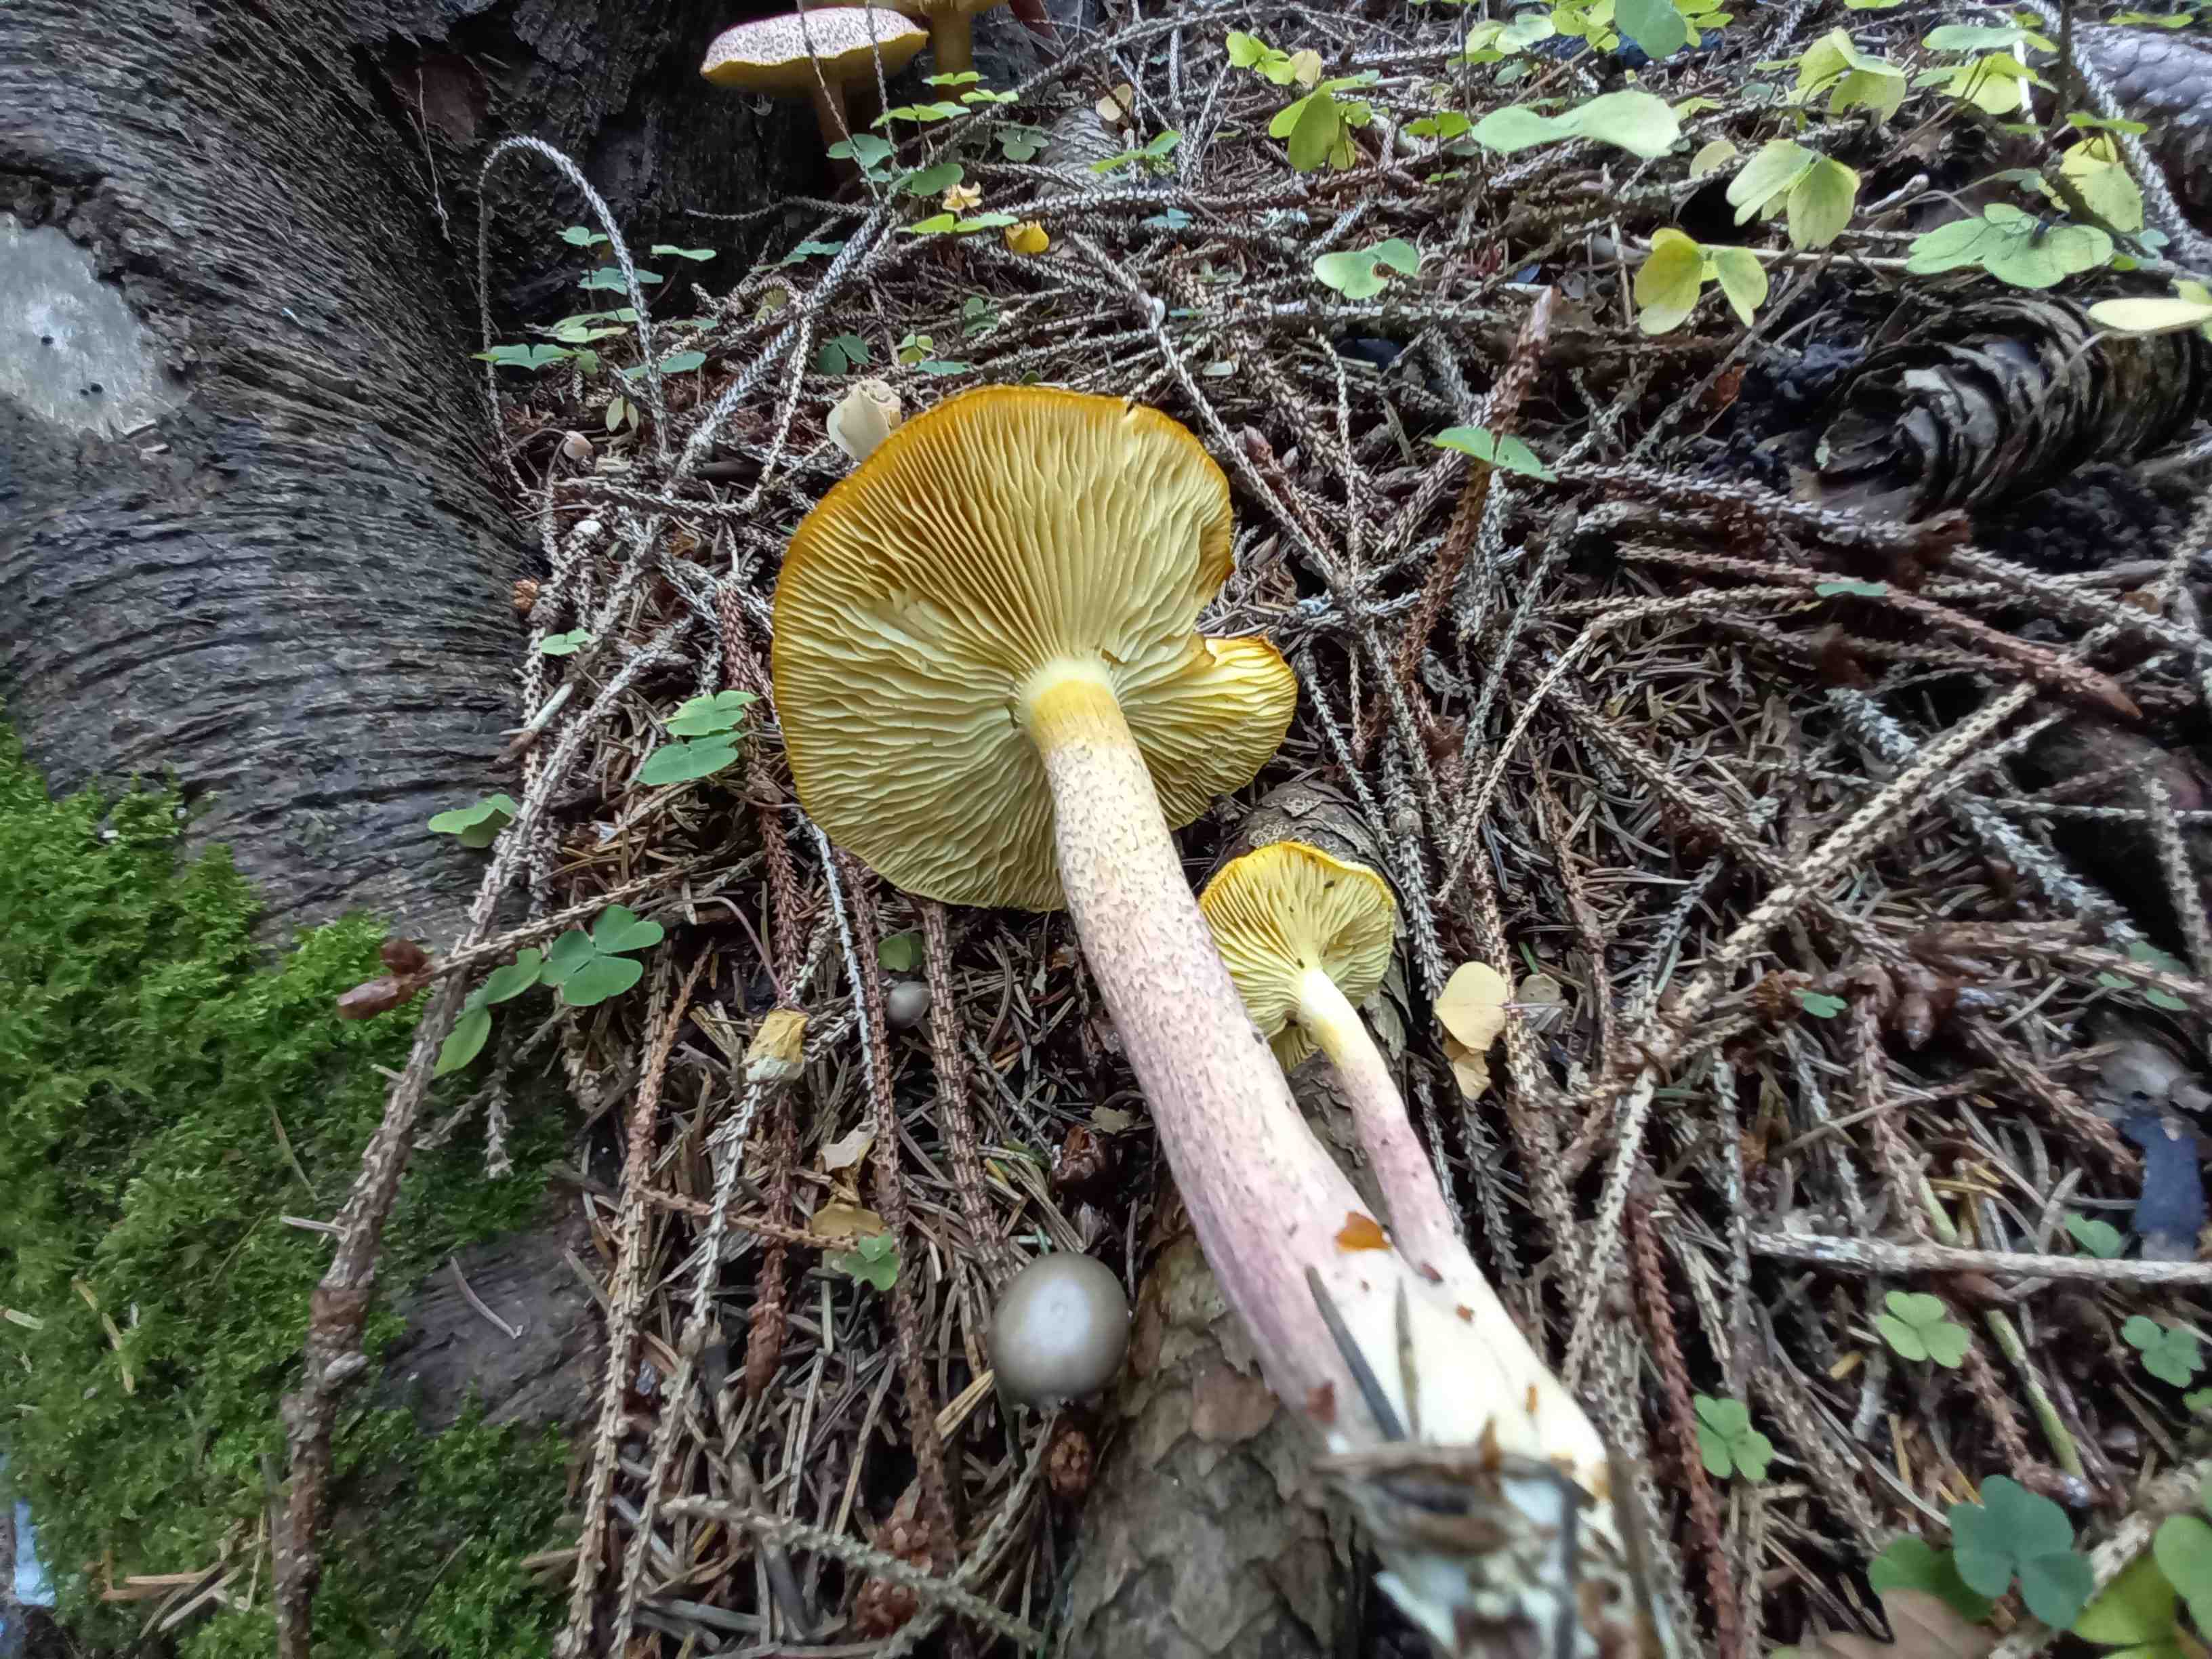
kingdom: Fungi
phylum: Basidiomycota
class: Agaricomycetes
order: Agaricales
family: Tricholomataceae
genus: Tricholomopsis
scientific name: Tricholomopsis rutilans
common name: purpur-væbnerhat
